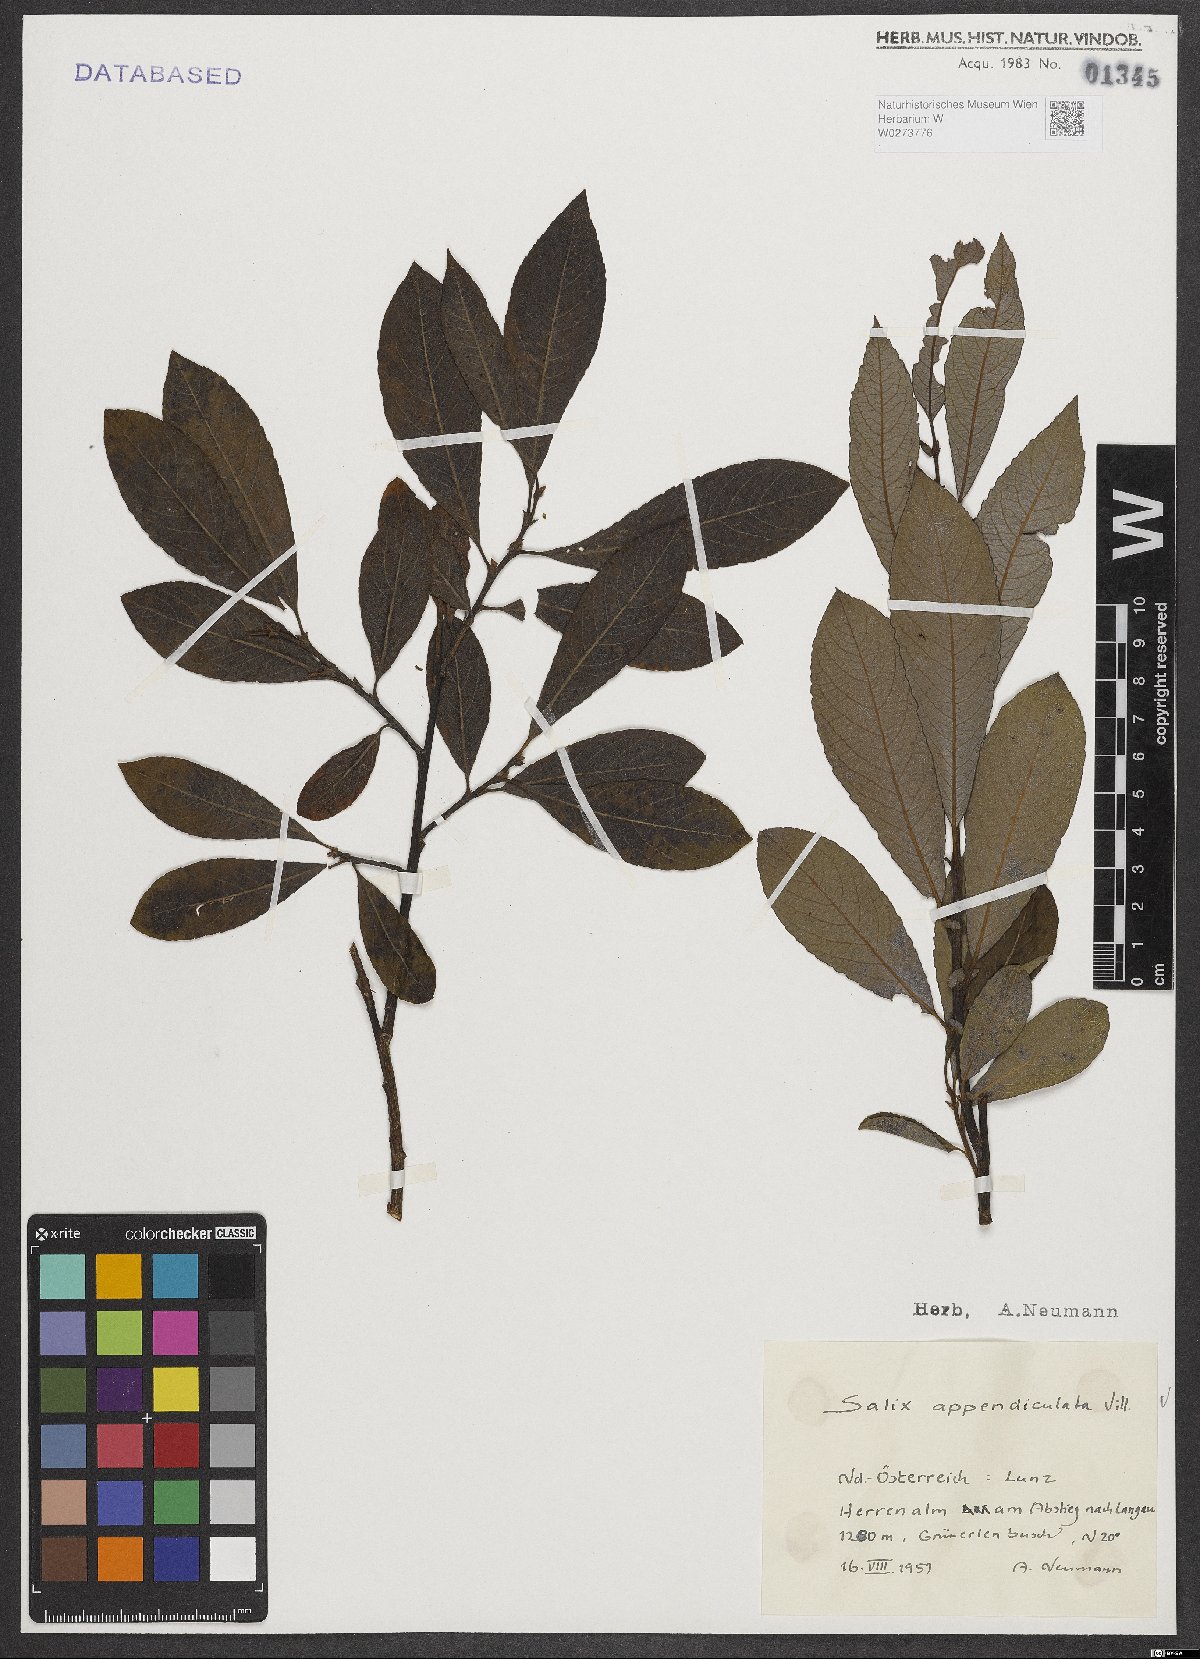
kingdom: Plantae
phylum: Tracheophyta
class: Magnoliopsida
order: Malpighiales
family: Salicaceae
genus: Salix
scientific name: Salix appendiculata
